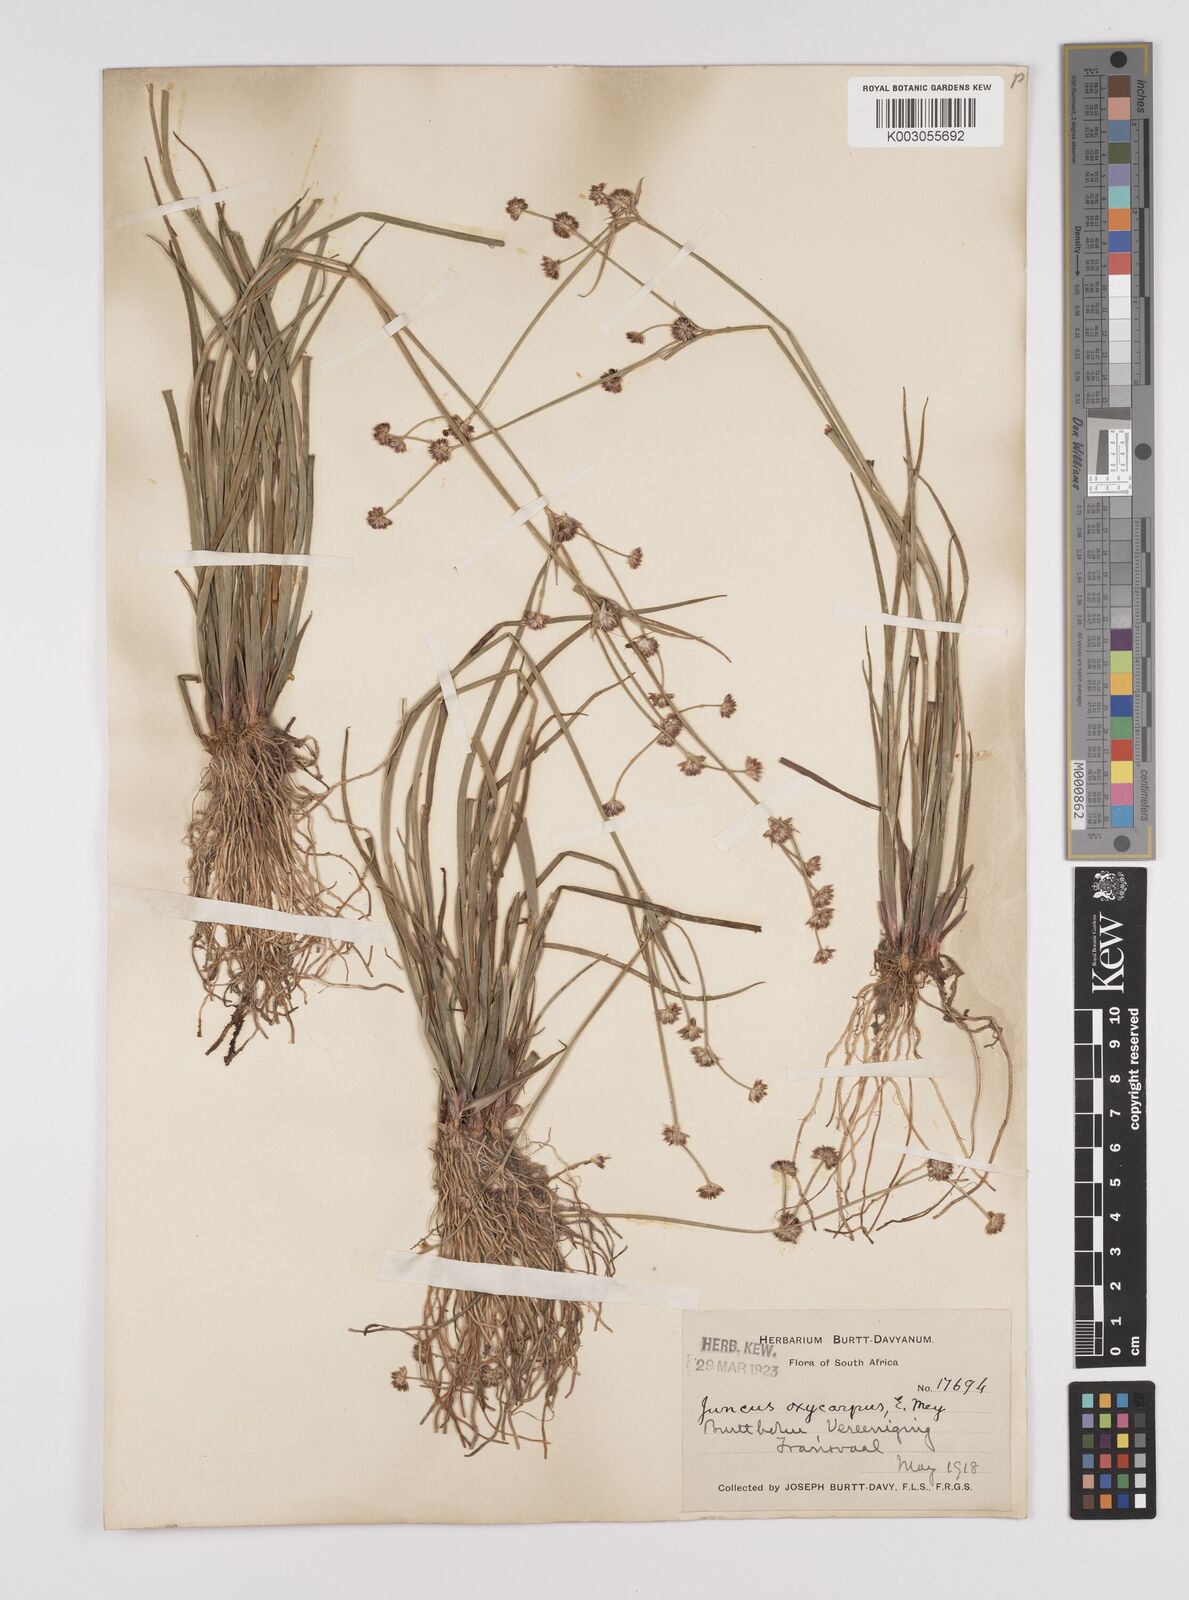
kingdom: Plantae
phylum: Tracheophyta
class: Liliopsida
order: Poales
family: Juncaceae
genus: Juncus
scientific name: Juncus oxycarpus
